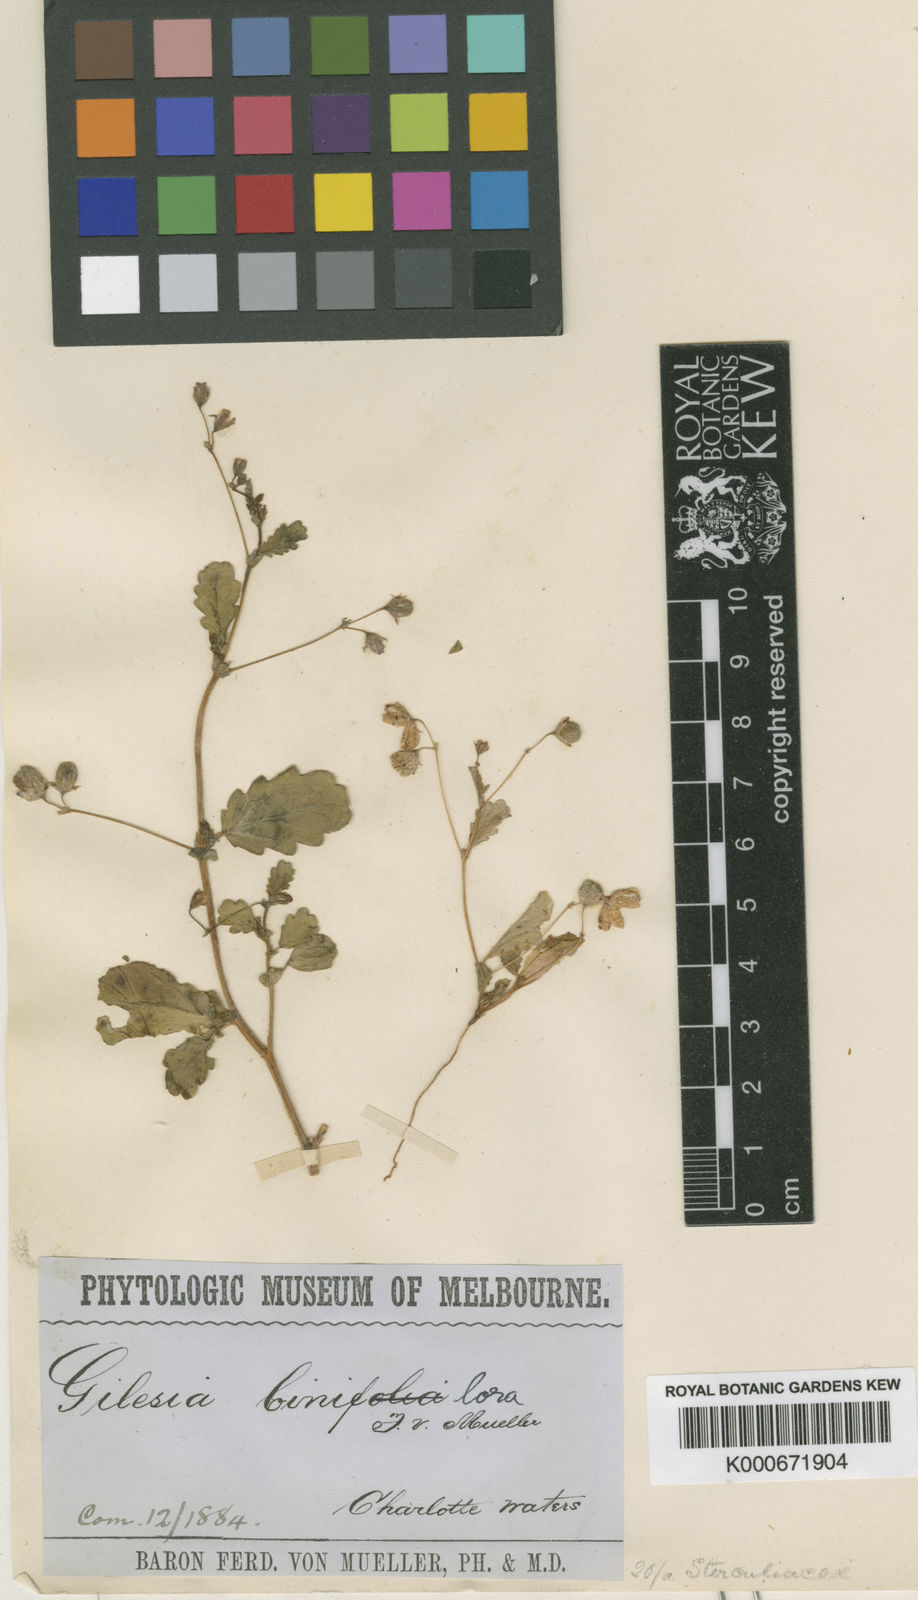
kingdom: Plantae
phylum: Tracheophyta
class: Magnoliopsida
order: Malvales
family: Malvaceae
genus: Gilesia
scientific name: Gilesia biniflora
